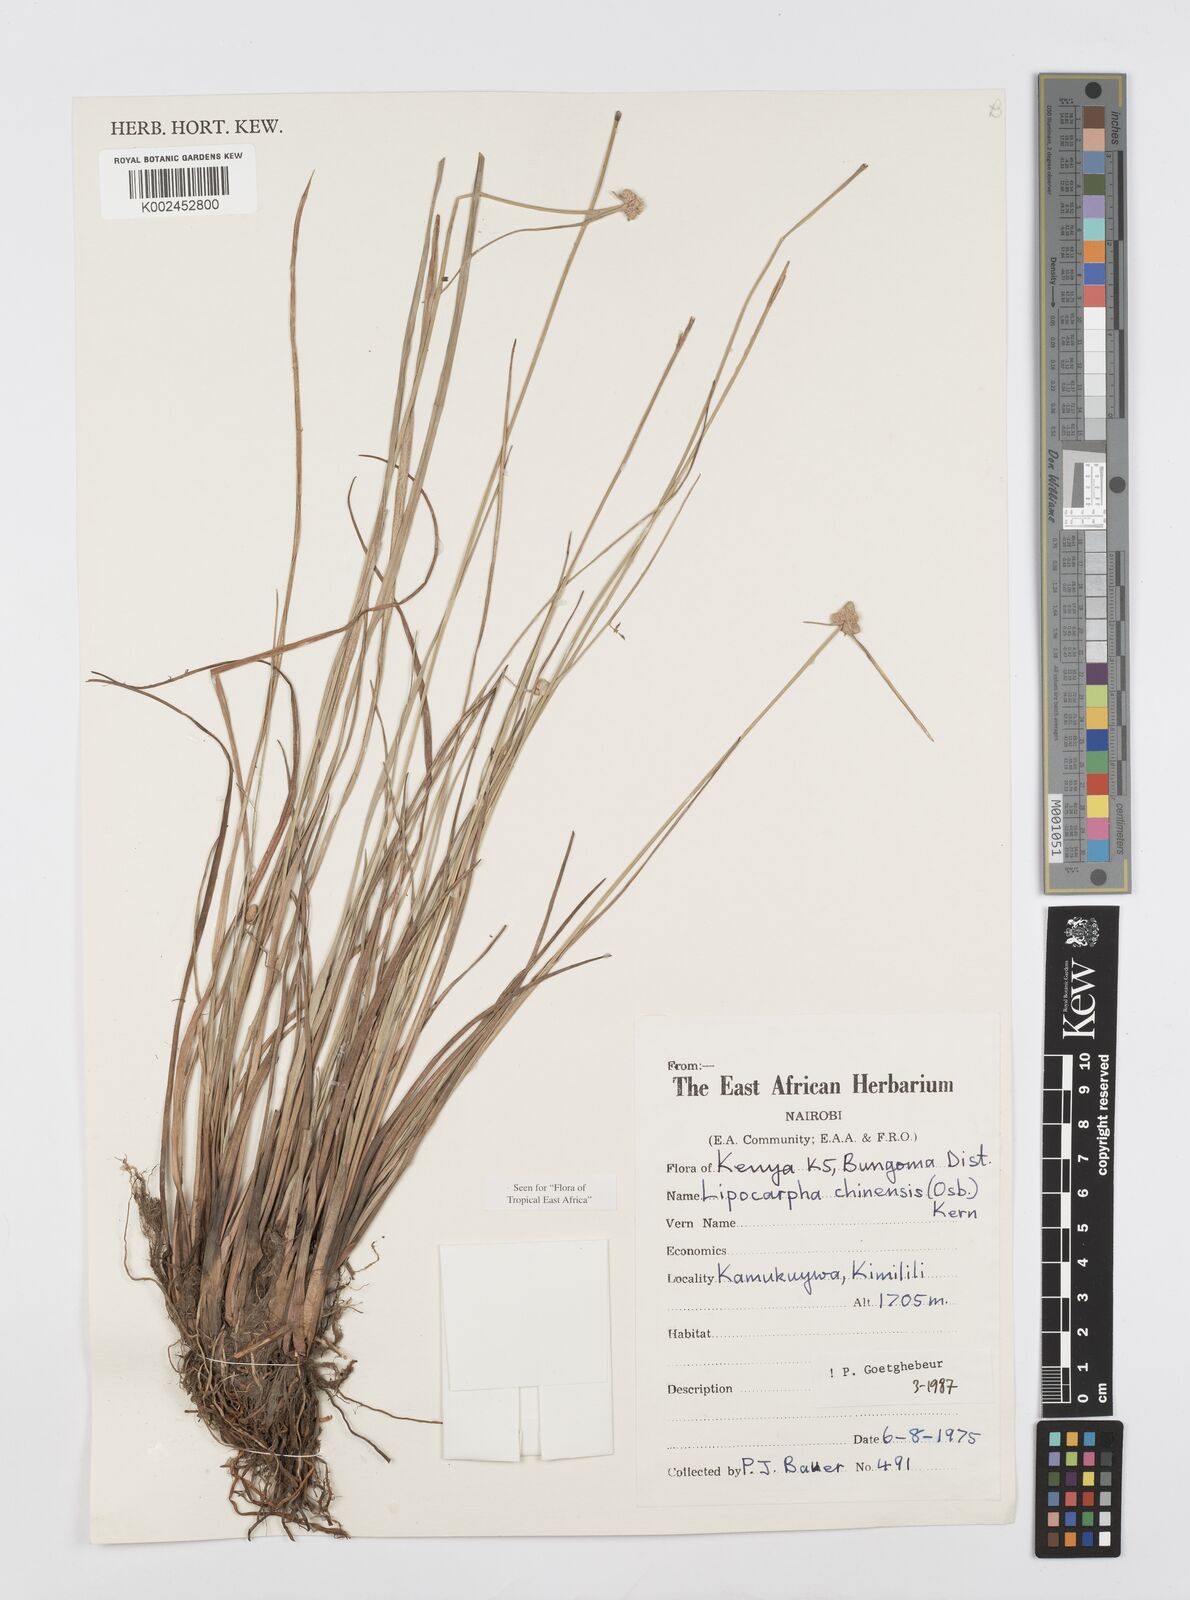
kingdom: Plantae
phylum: Tracheophyta
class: Liliopsida
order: Poales
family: Cyperaceae
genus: Cyperus
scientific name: Cyperus albescens
